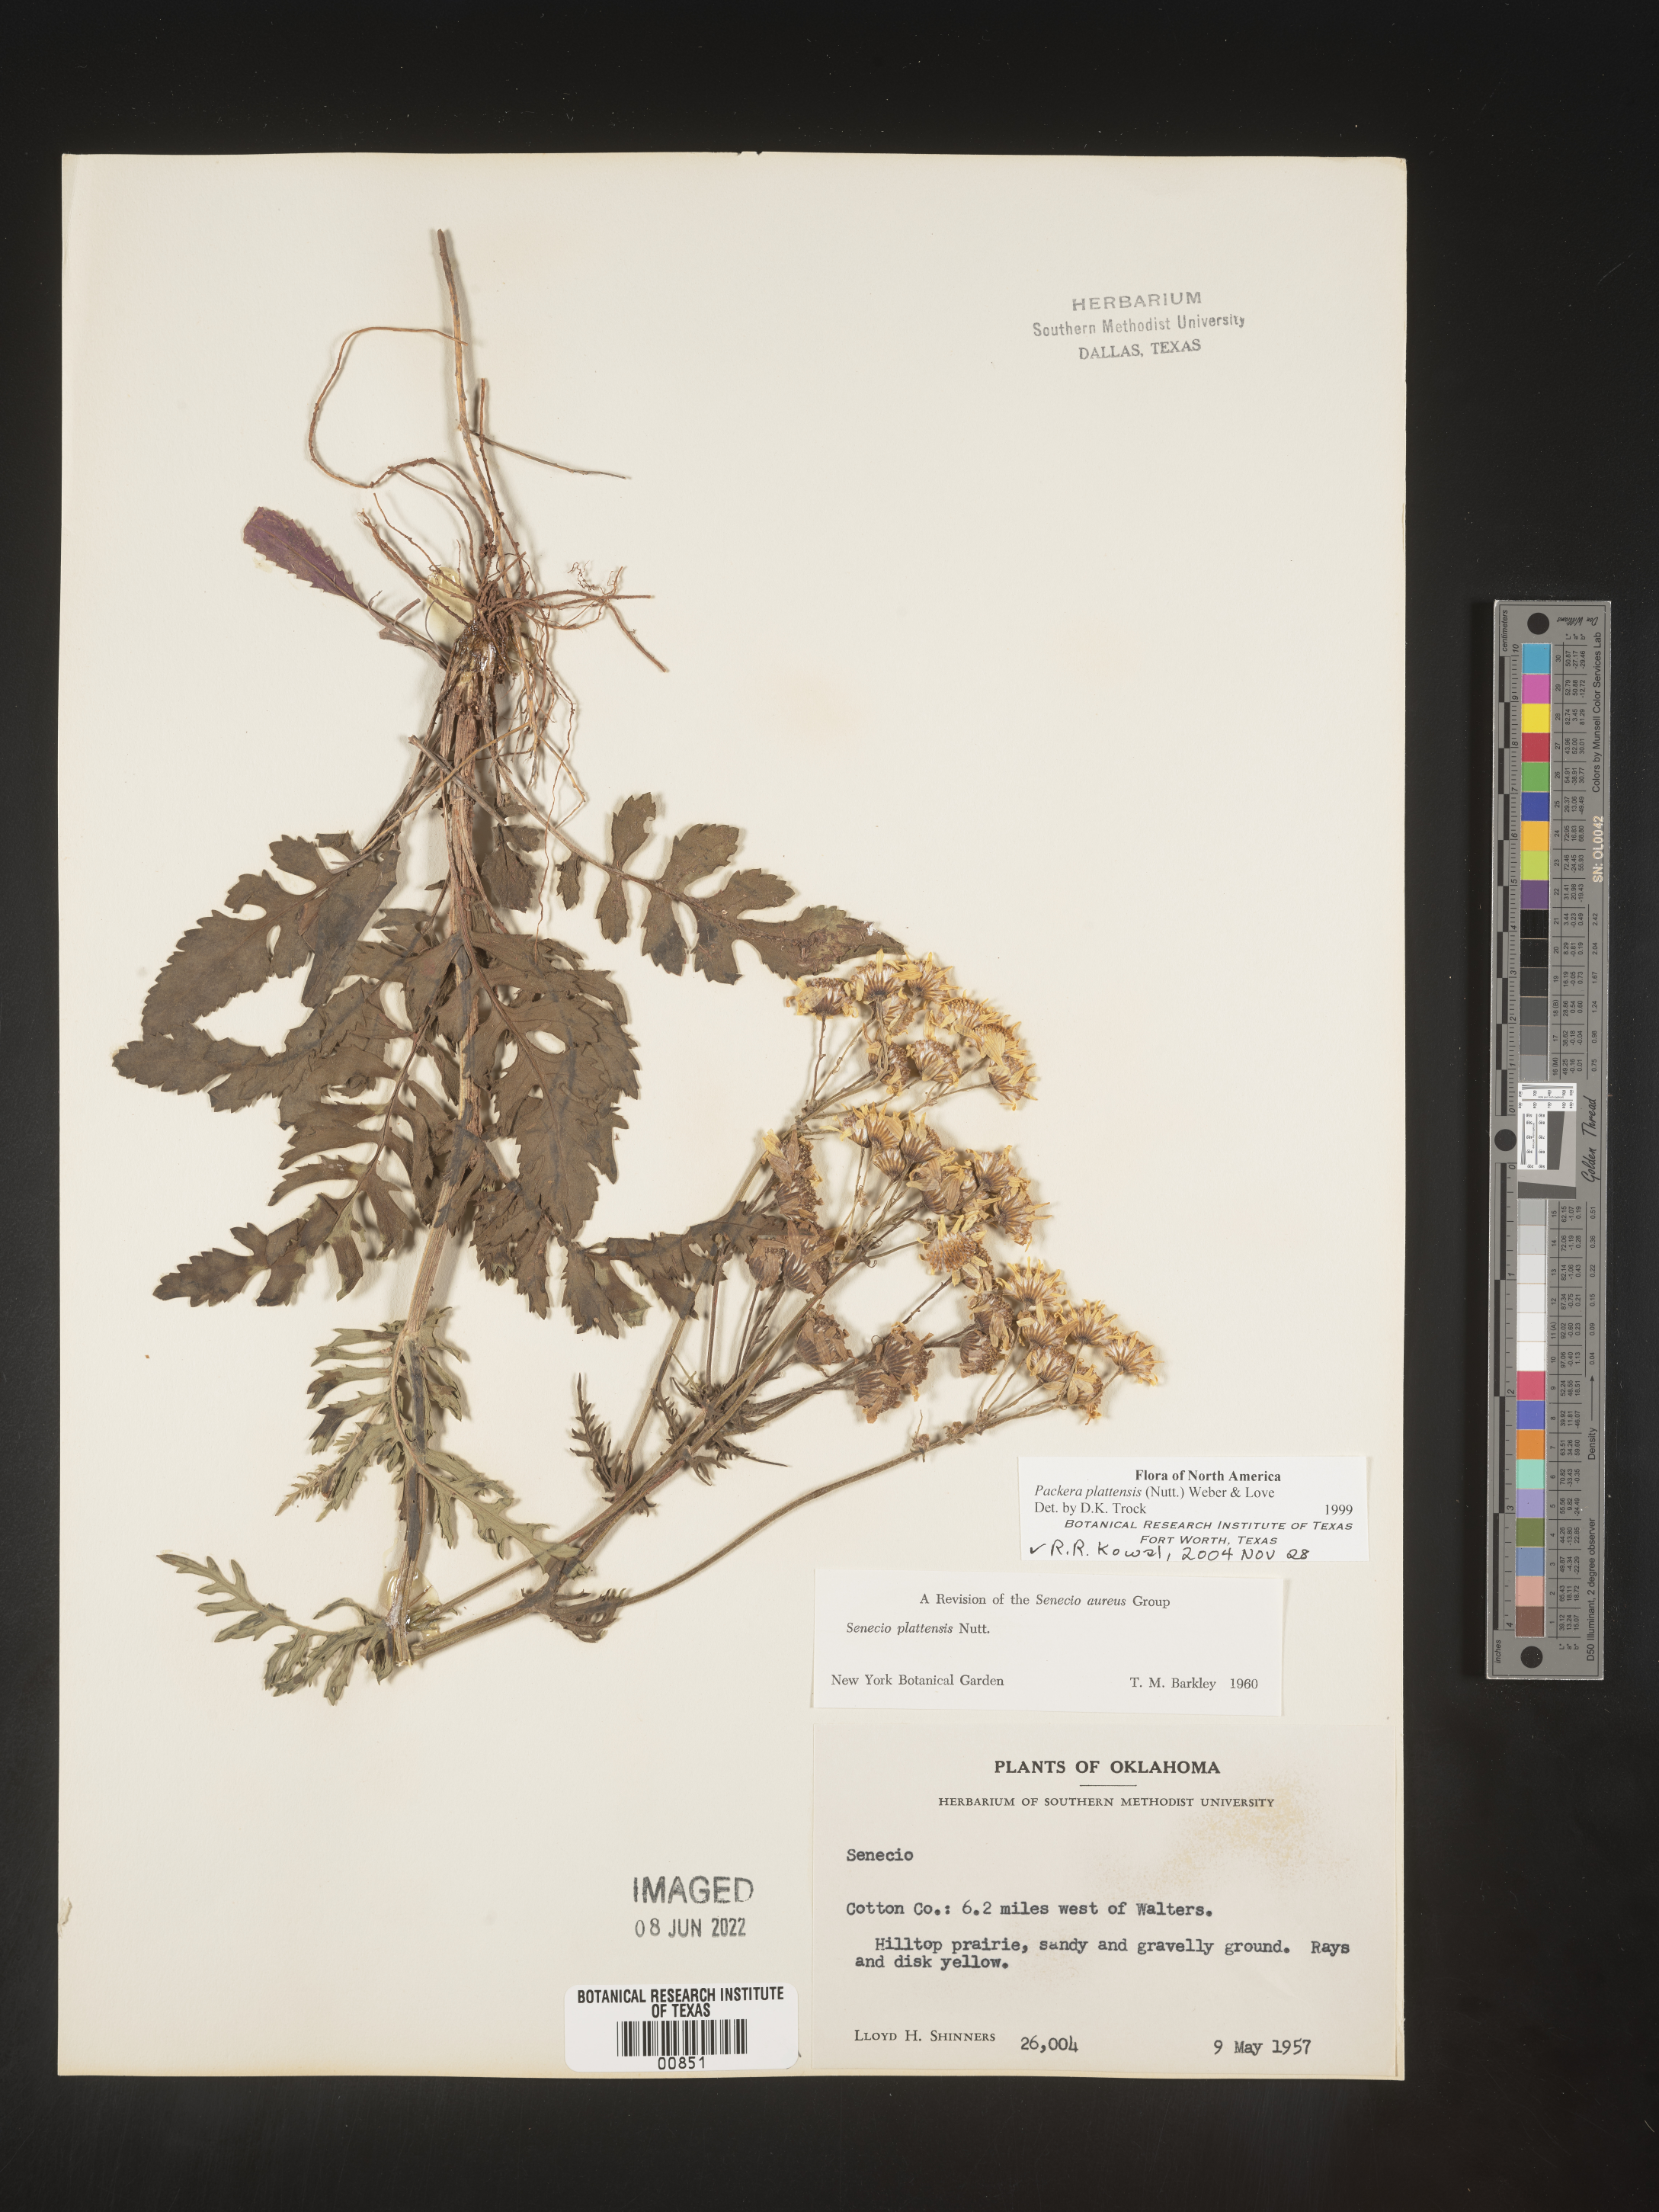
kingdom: Plantae
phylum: Tracheophyta
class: Magnoliopsida
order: Asterales
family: Asteraceae
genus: Packera
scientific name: Packera plattensis
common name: Prairie groundsel
